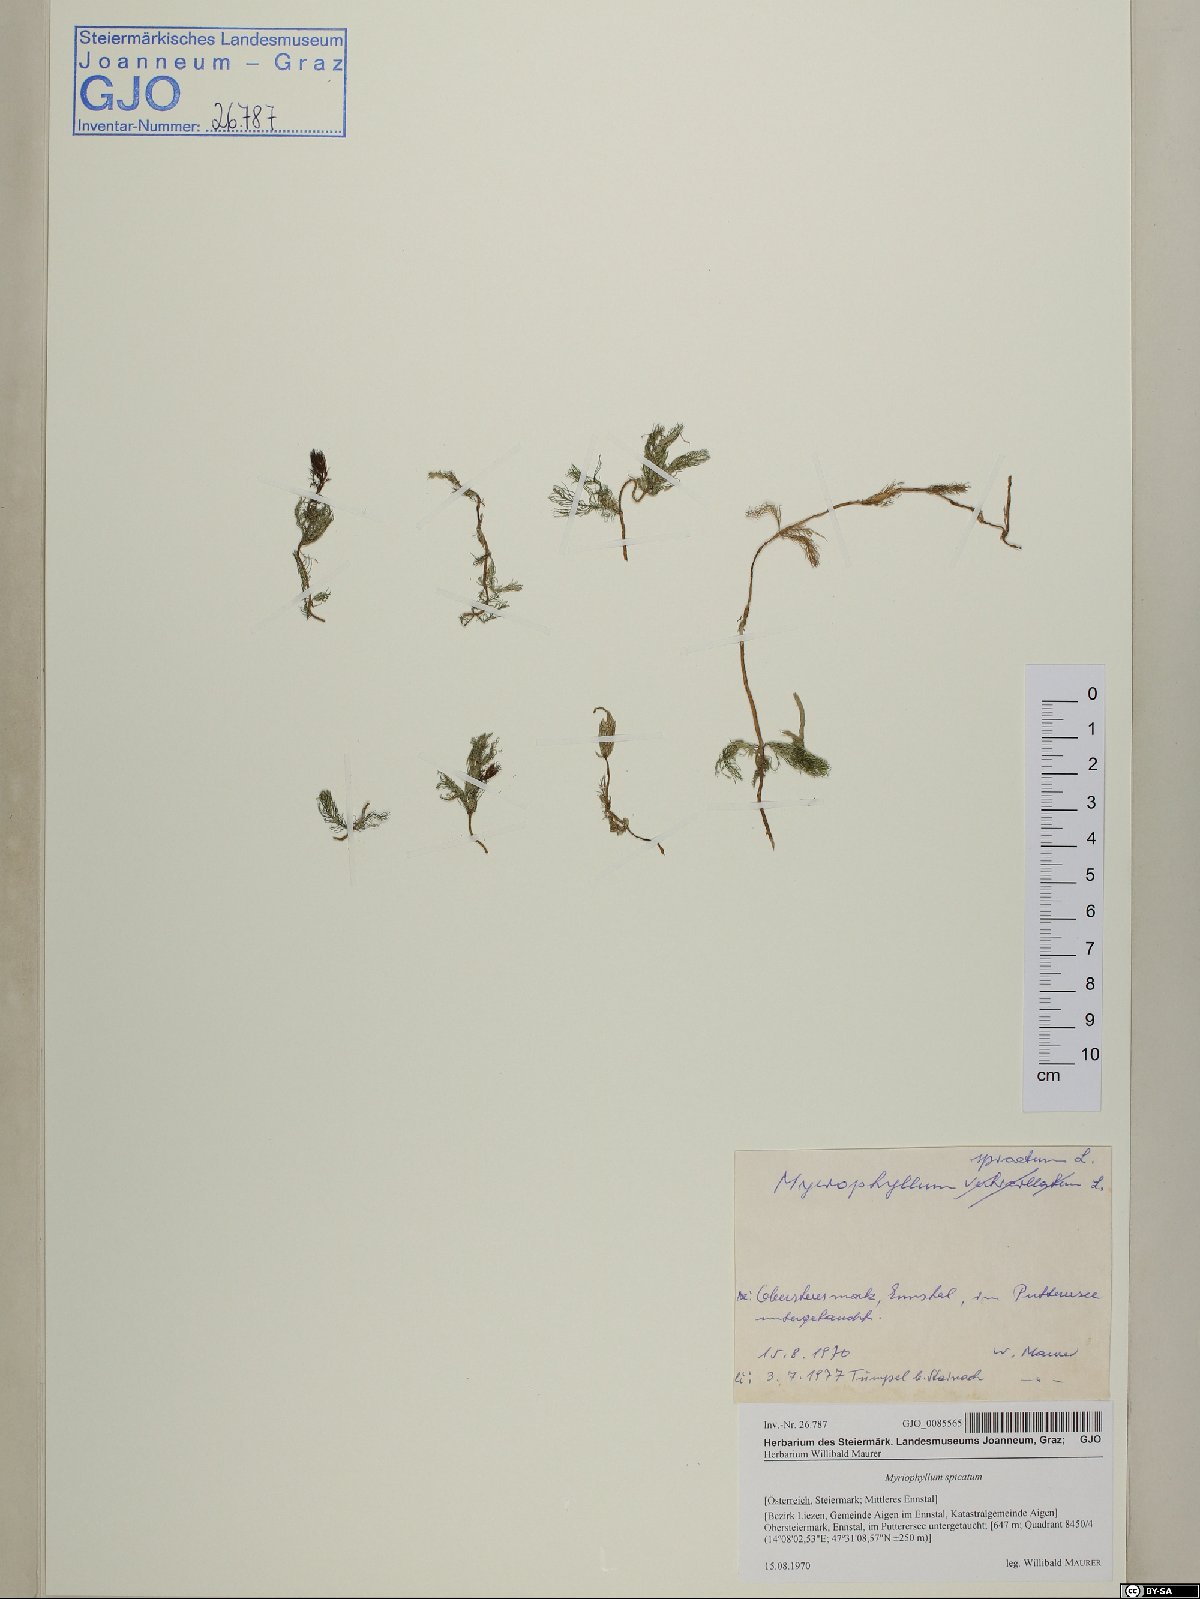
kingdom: Plantae
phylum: Tracheophyta
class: Magnoliopsida
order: Saxifragales
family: Haloragaceae
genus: Myriophyllum
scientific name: Myriophyllum spicatum
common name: Spiked water-milfoil
